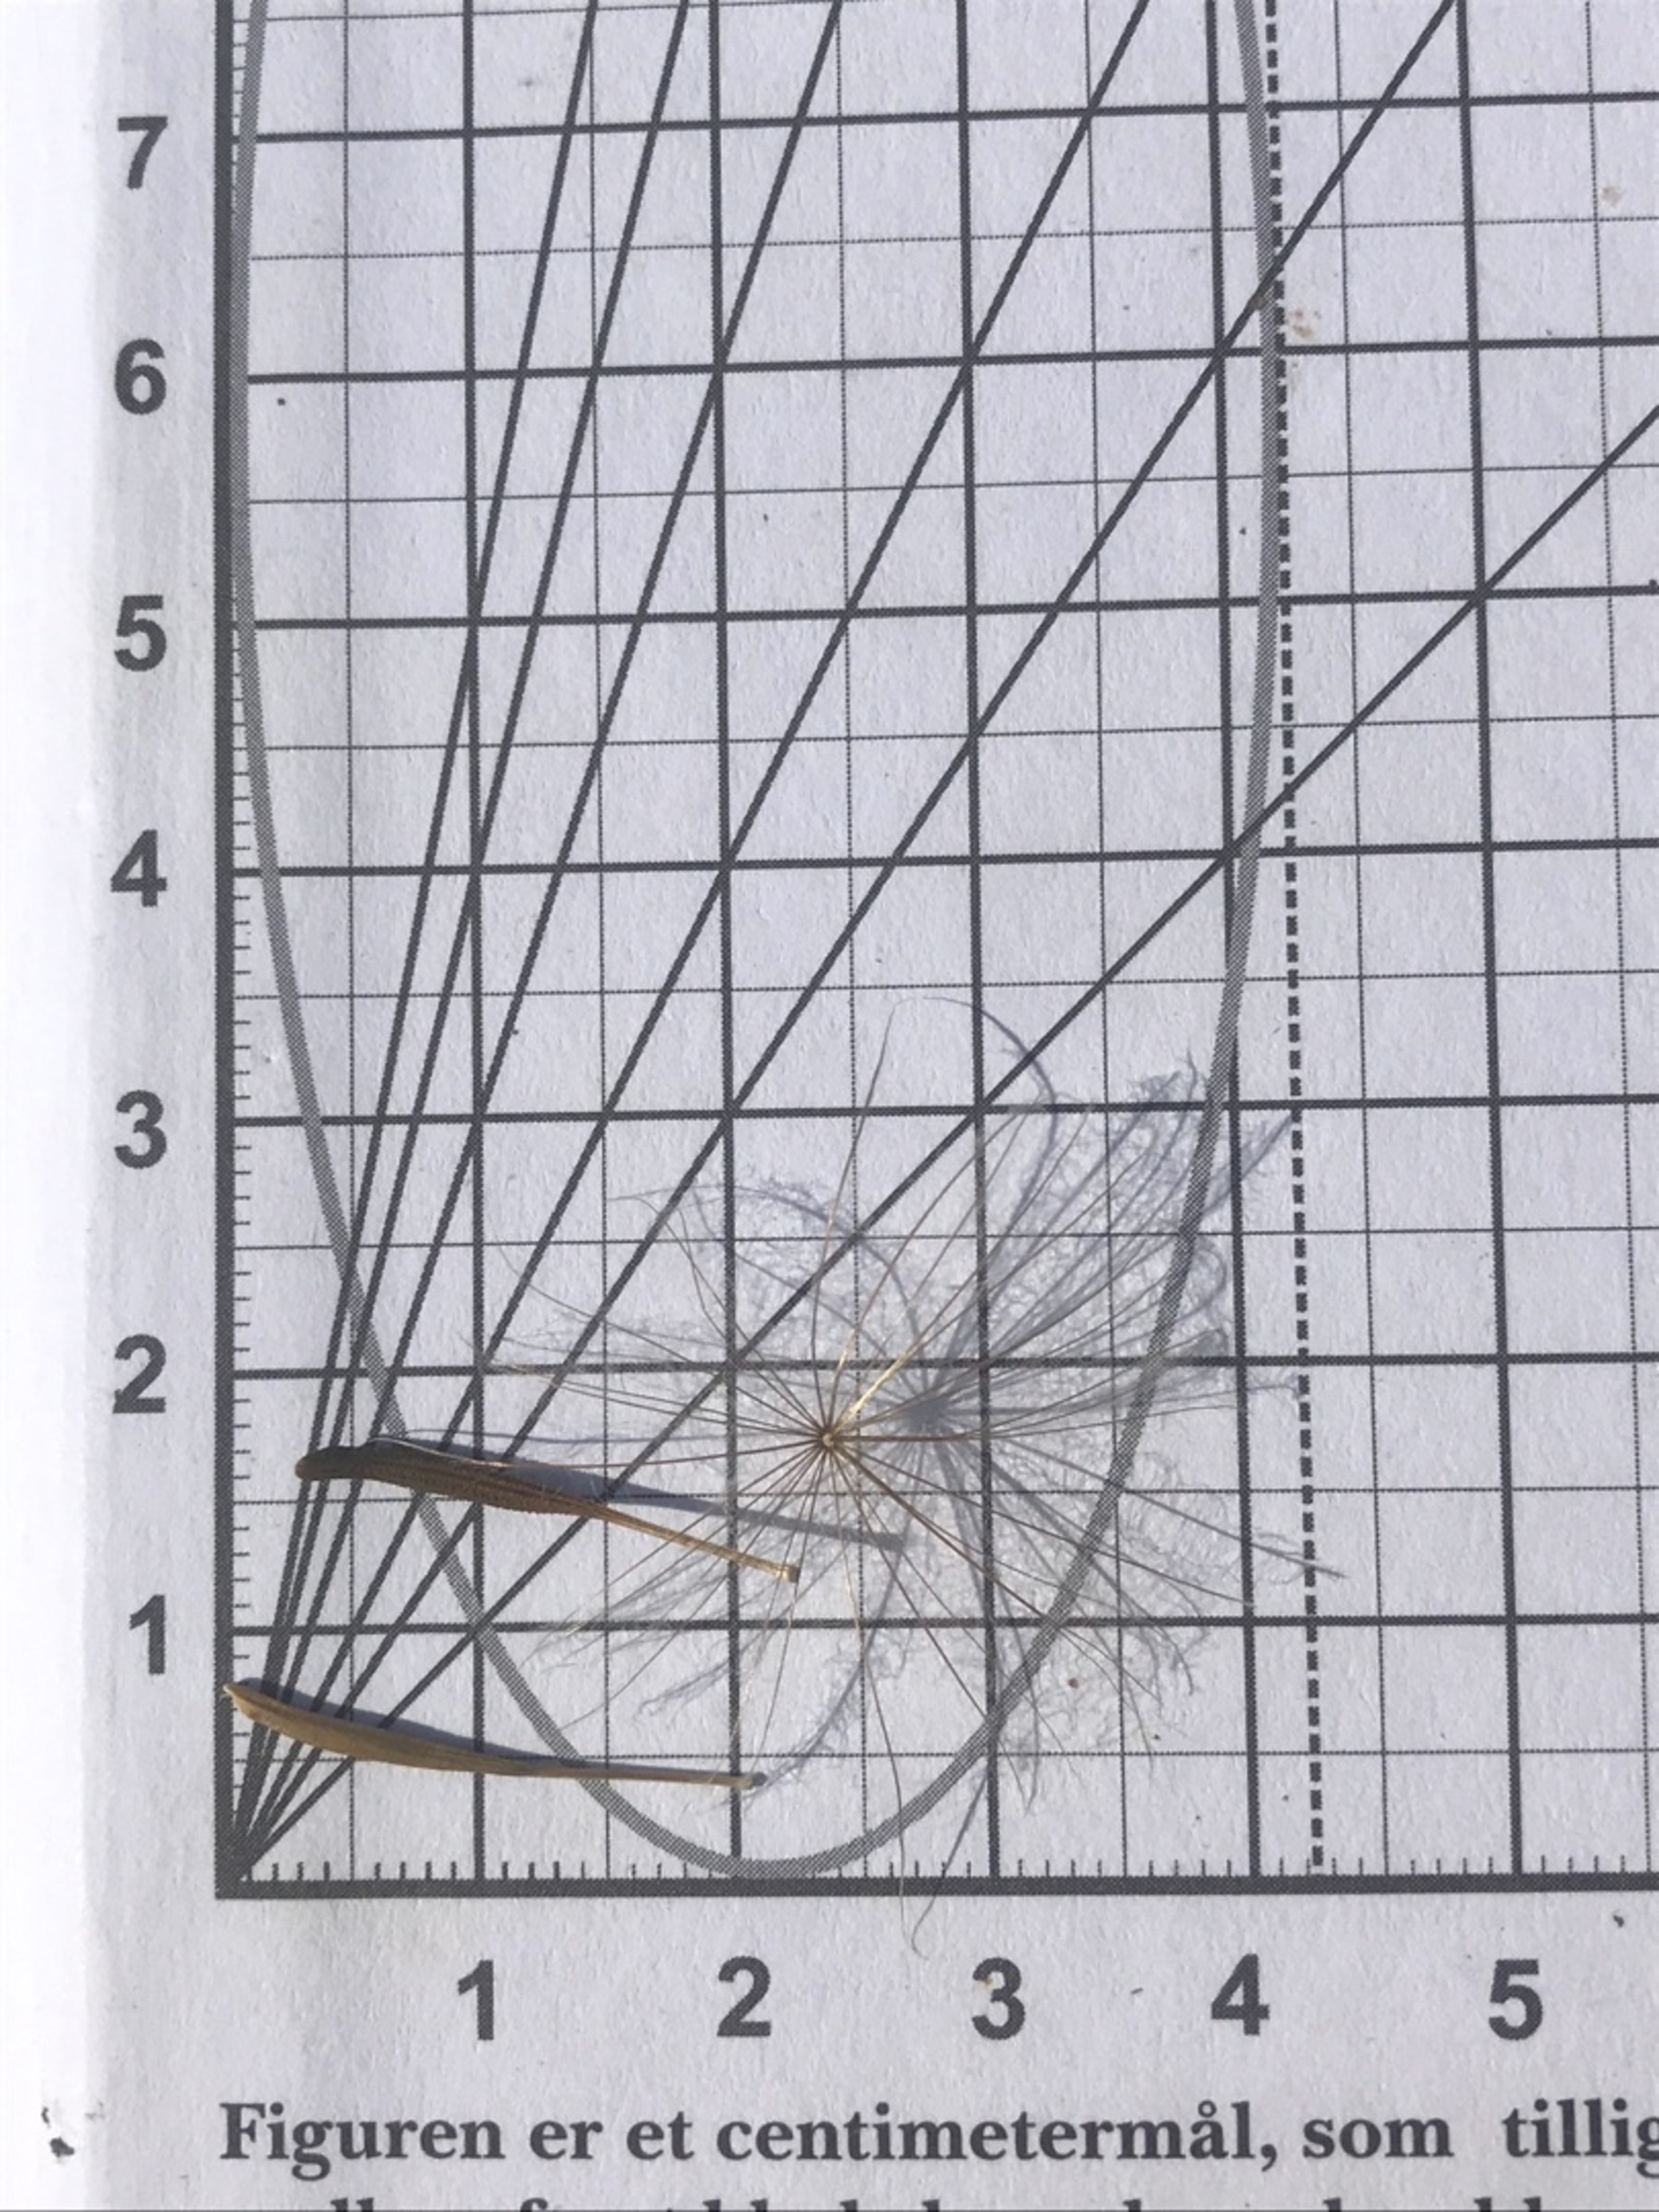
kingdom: Plantae
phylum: Tracheophyta
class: Magnoliopsida
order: Asterales
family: Asteraceae
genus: Tragopogon
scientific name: Tragopogon pratensis
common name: Gedeskæg
